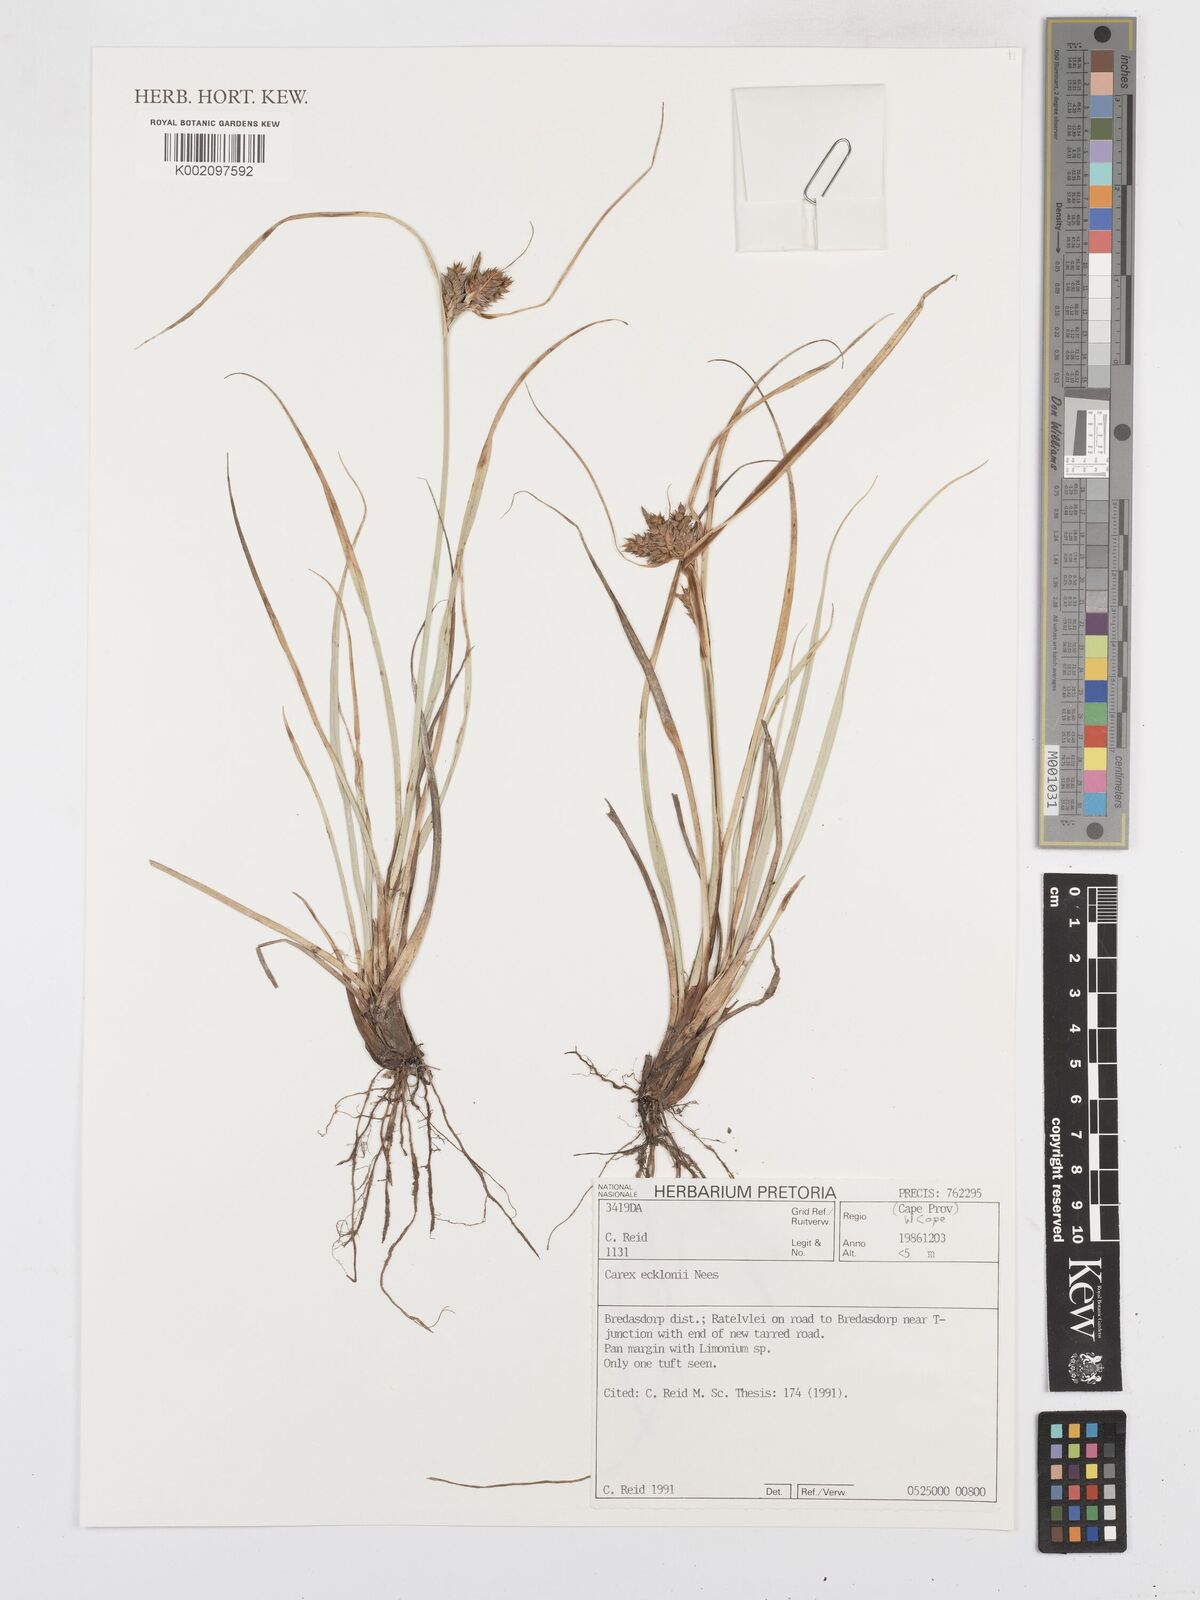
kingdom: Plantae
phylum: Tracheophyta
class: Liliopsida
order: Poales
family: Cyperaceae
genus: Carex
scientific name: Carex extensa
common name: Long-bracted sedge
